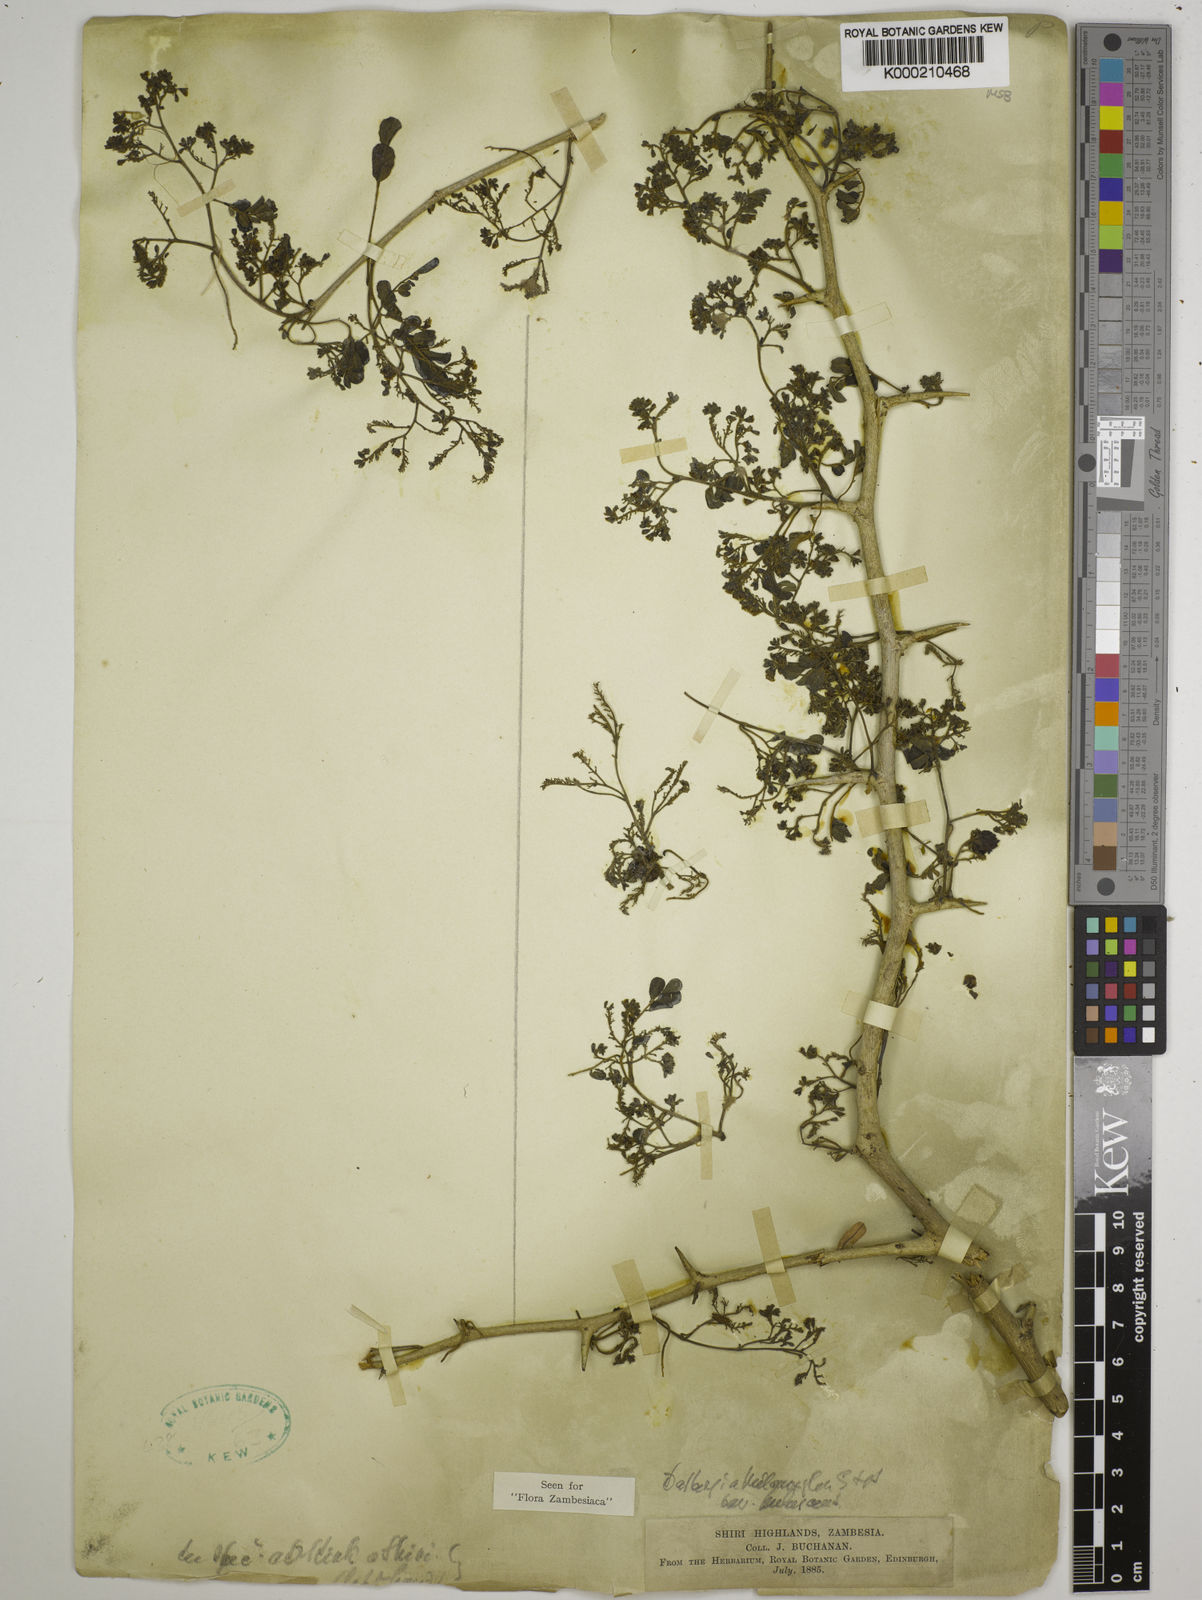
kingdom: Plantae
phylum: Tracheophyta
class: Magnoliopsida
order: Fabales
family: Fabaceae
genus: Dalbergia
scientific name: Dalbergia melanoxylon
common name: African blackwood
